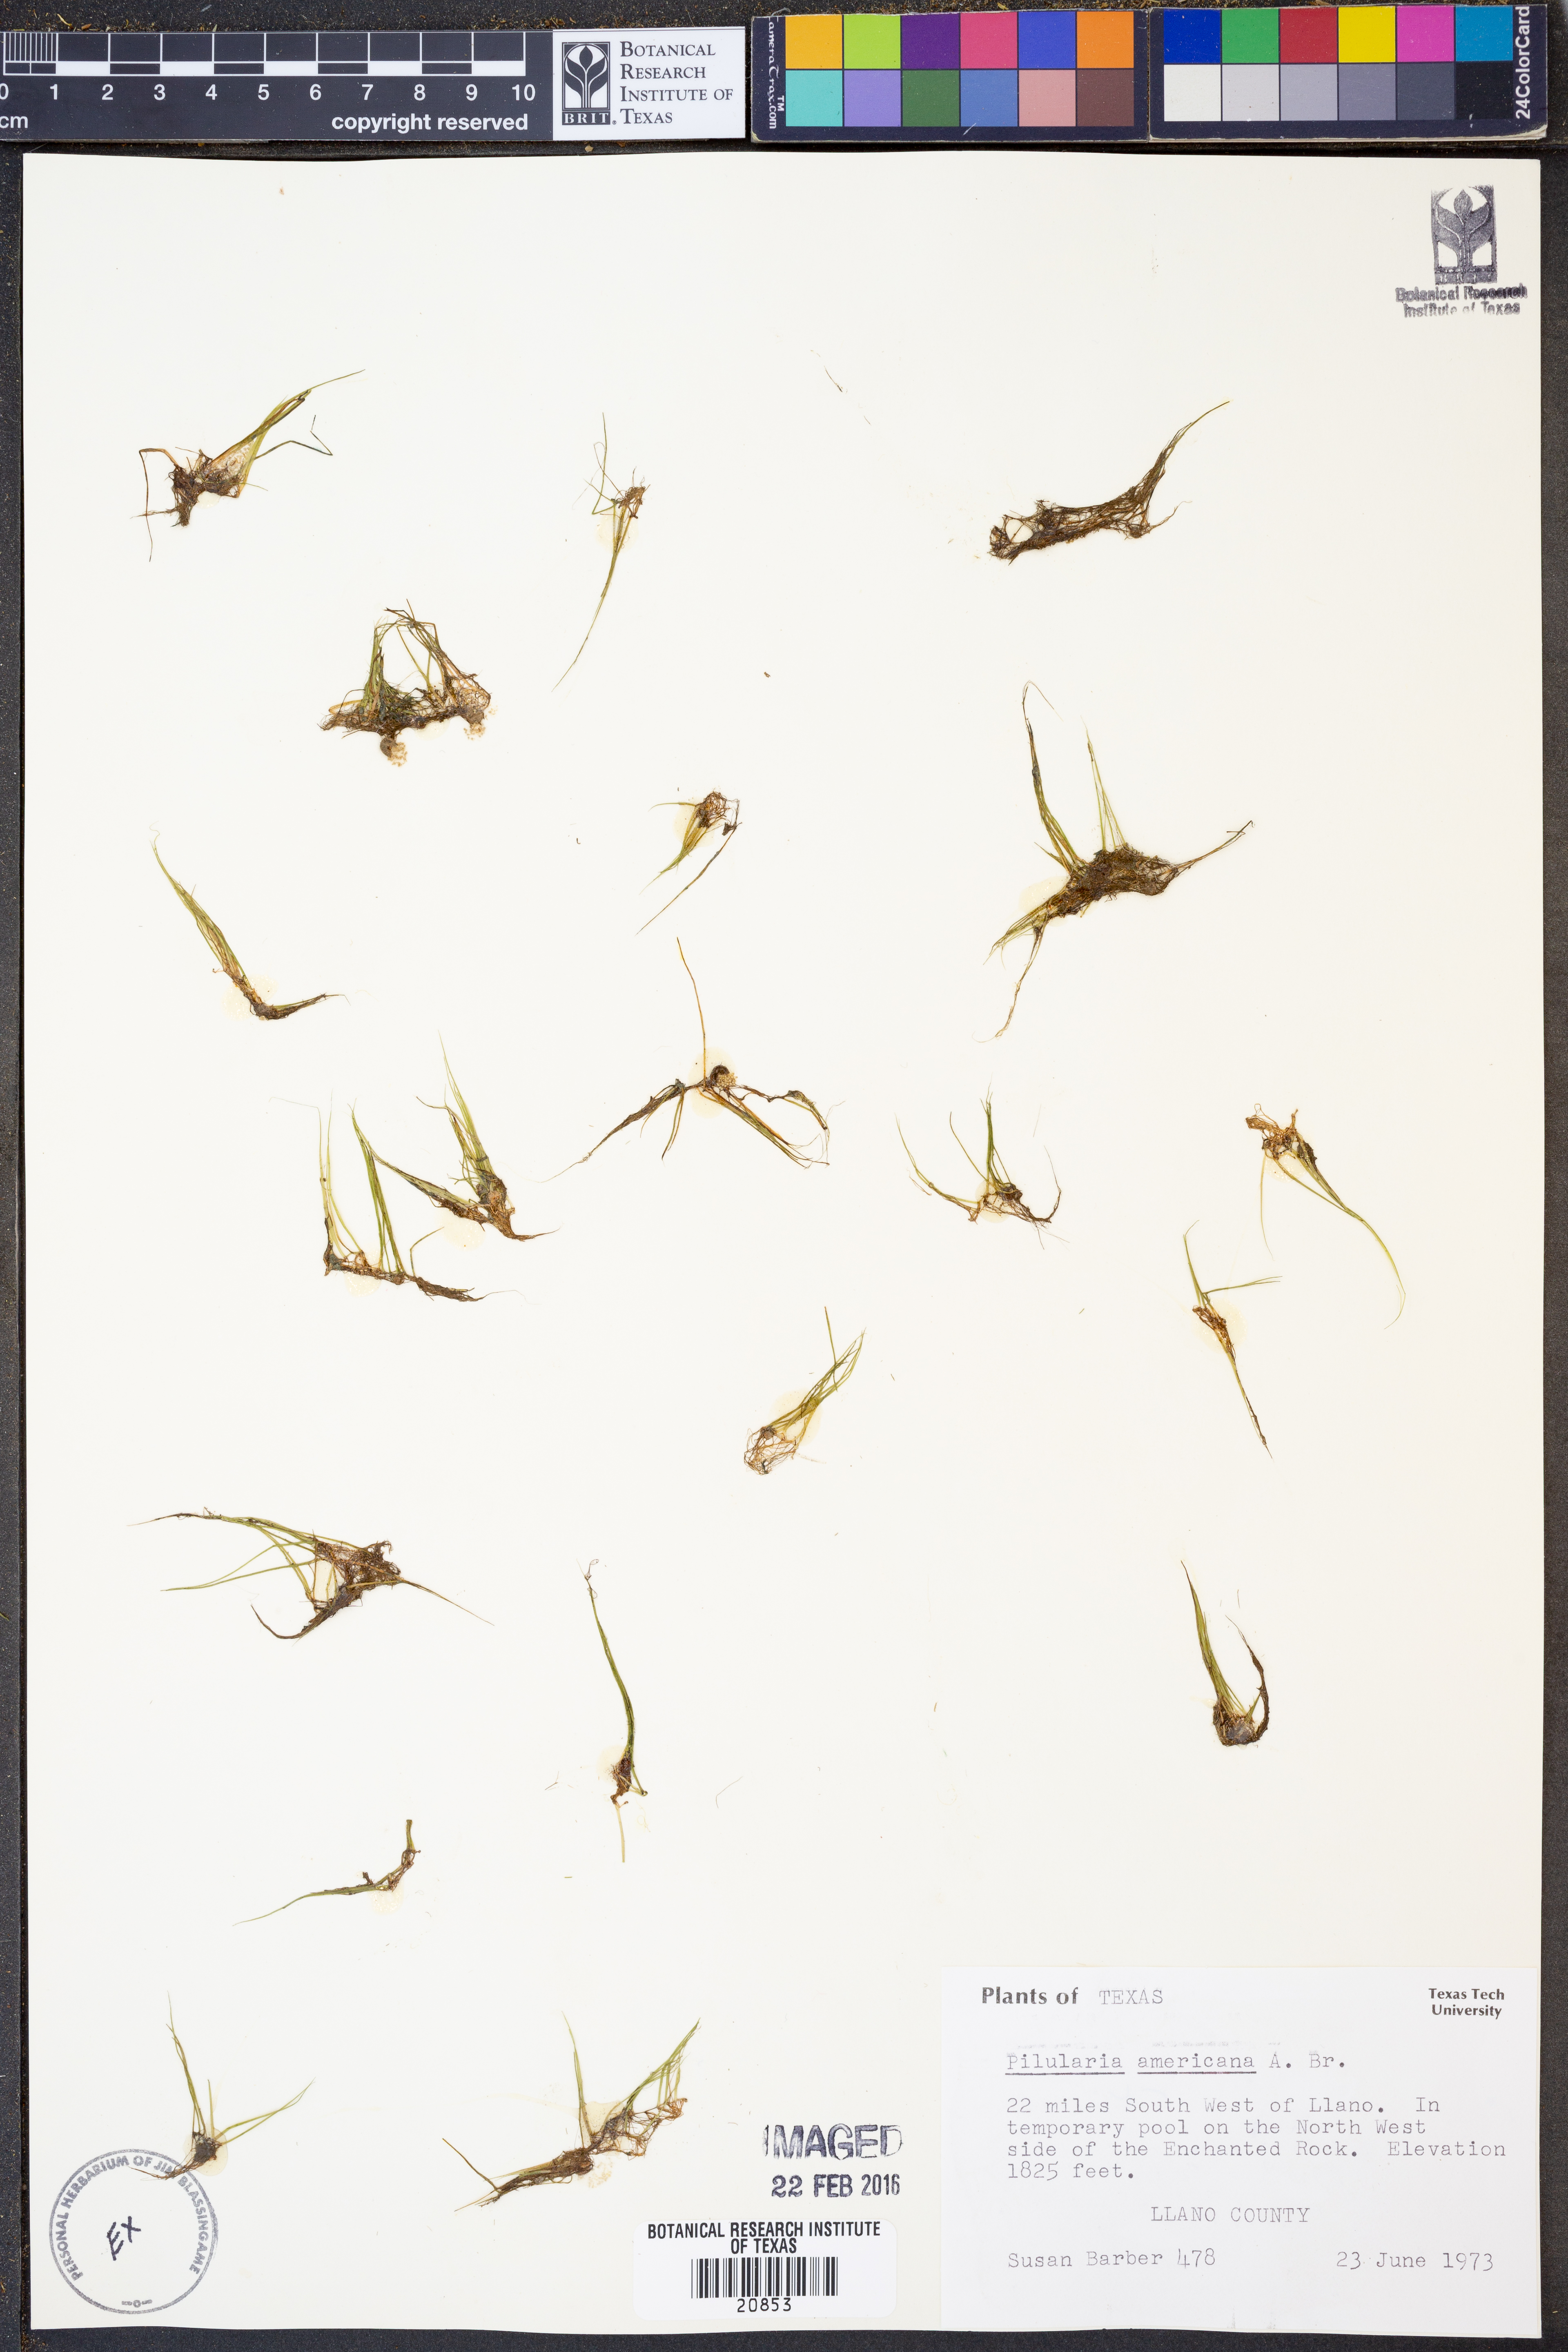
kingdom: Plantae
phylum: Tracheophyta
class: Polypodiopsida
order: Salviniales
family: Marsileaceae
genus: Pilularia
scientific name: Pilularia americana
